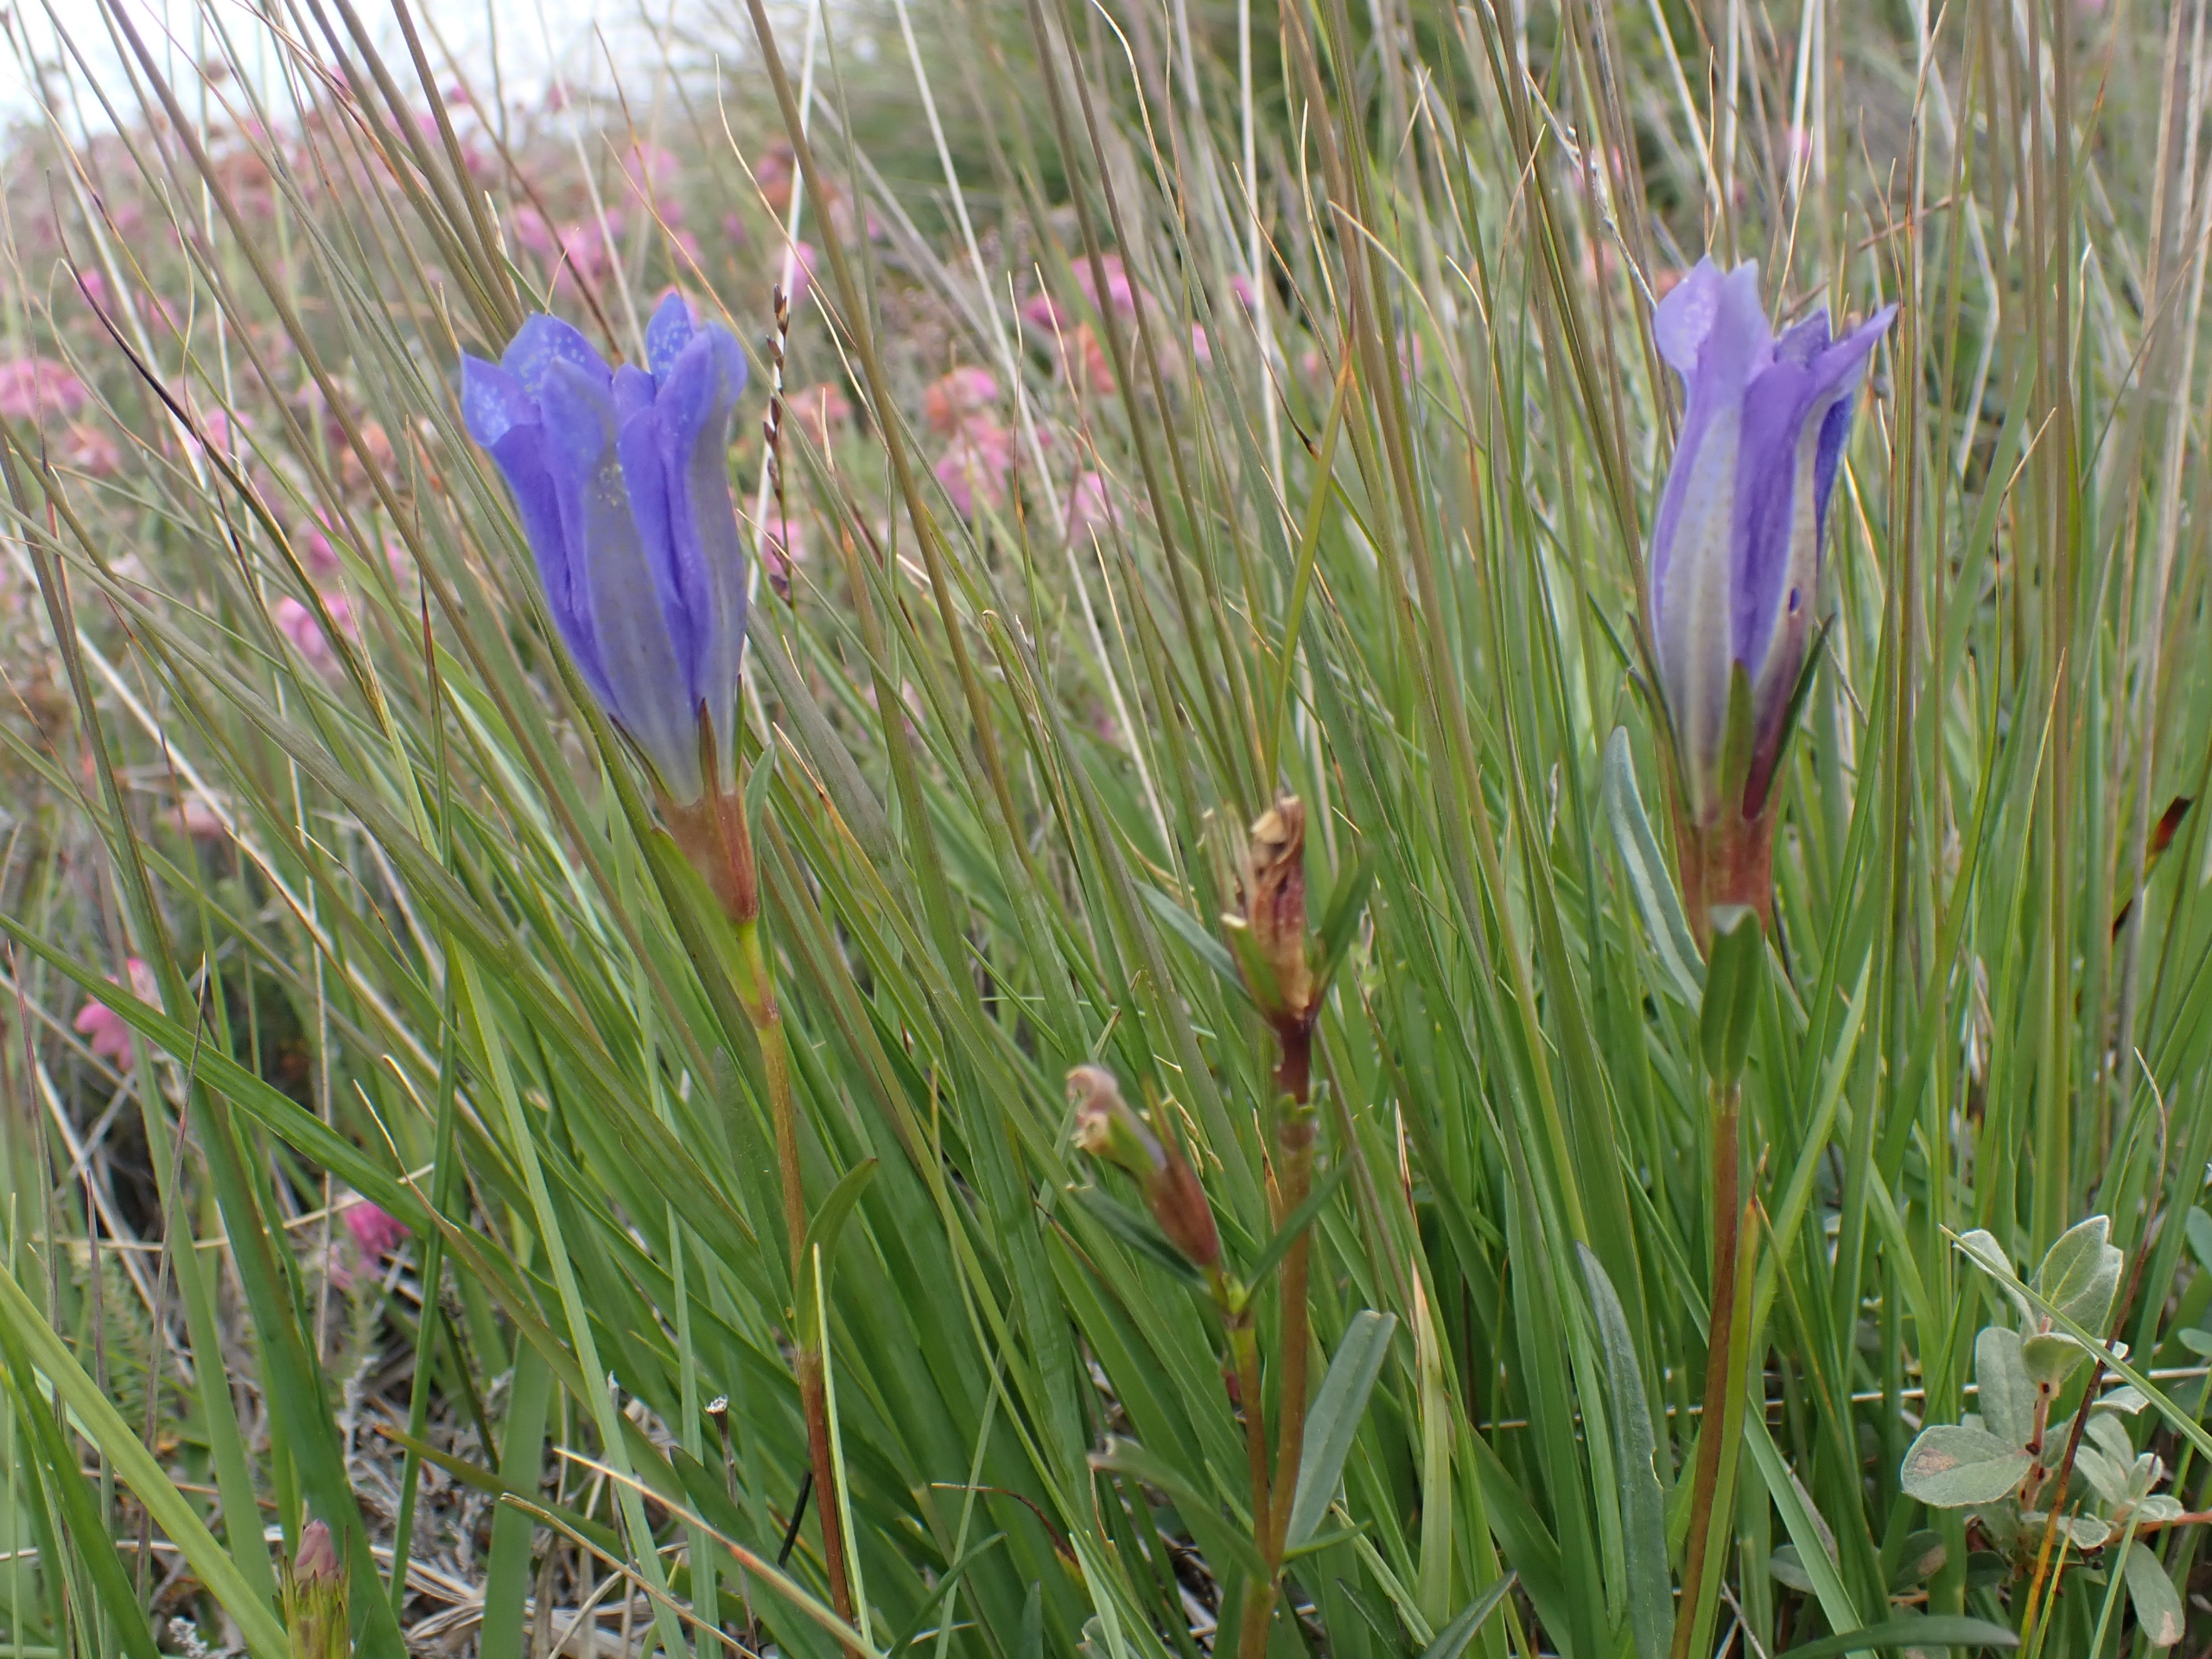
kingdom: Plantae
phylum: Tracheophyta
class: Magnoliopsida
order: Gentianales
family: Gentianaceae
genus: Gentiana
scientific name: Gentiana pneumonanthe
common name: Klokke-ensian
